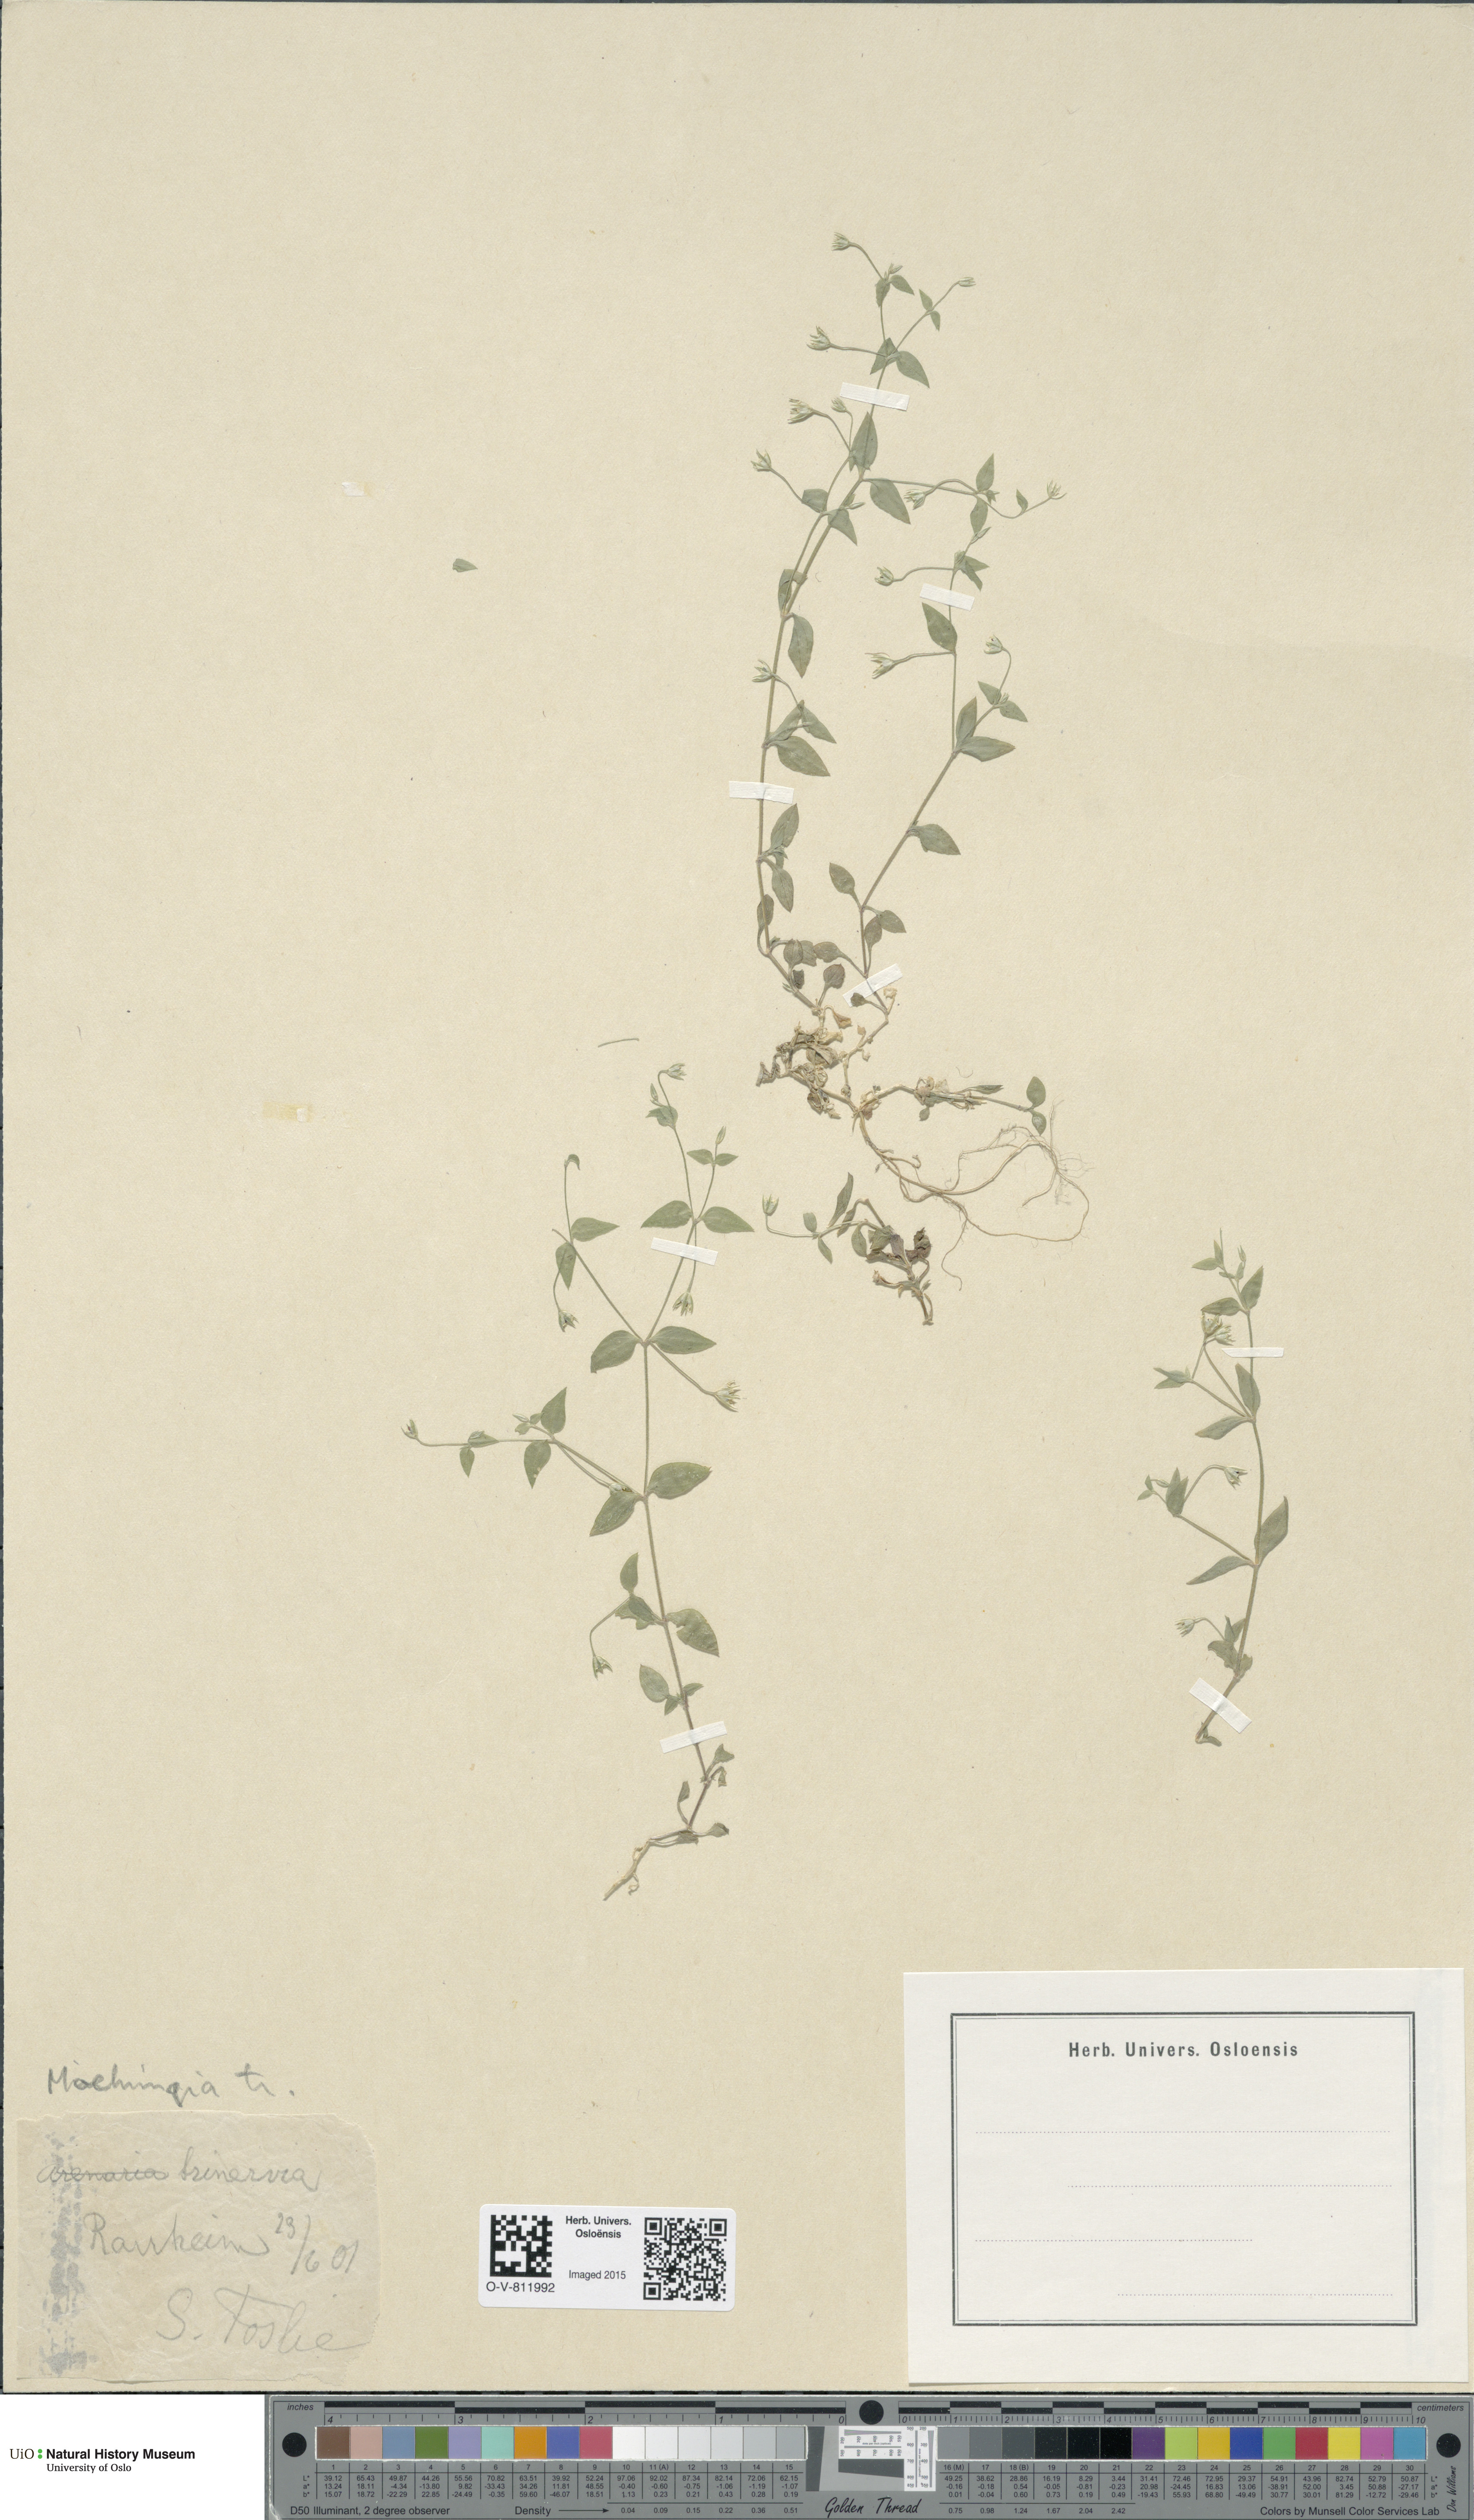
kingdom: Plantae
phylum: Tracheophyta
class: Magnoliopsida
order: Caryophyllales
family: Caryophyllaceae
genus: Moehringia
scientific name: Moehringia trinervia
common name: Three-nerved sandwort
